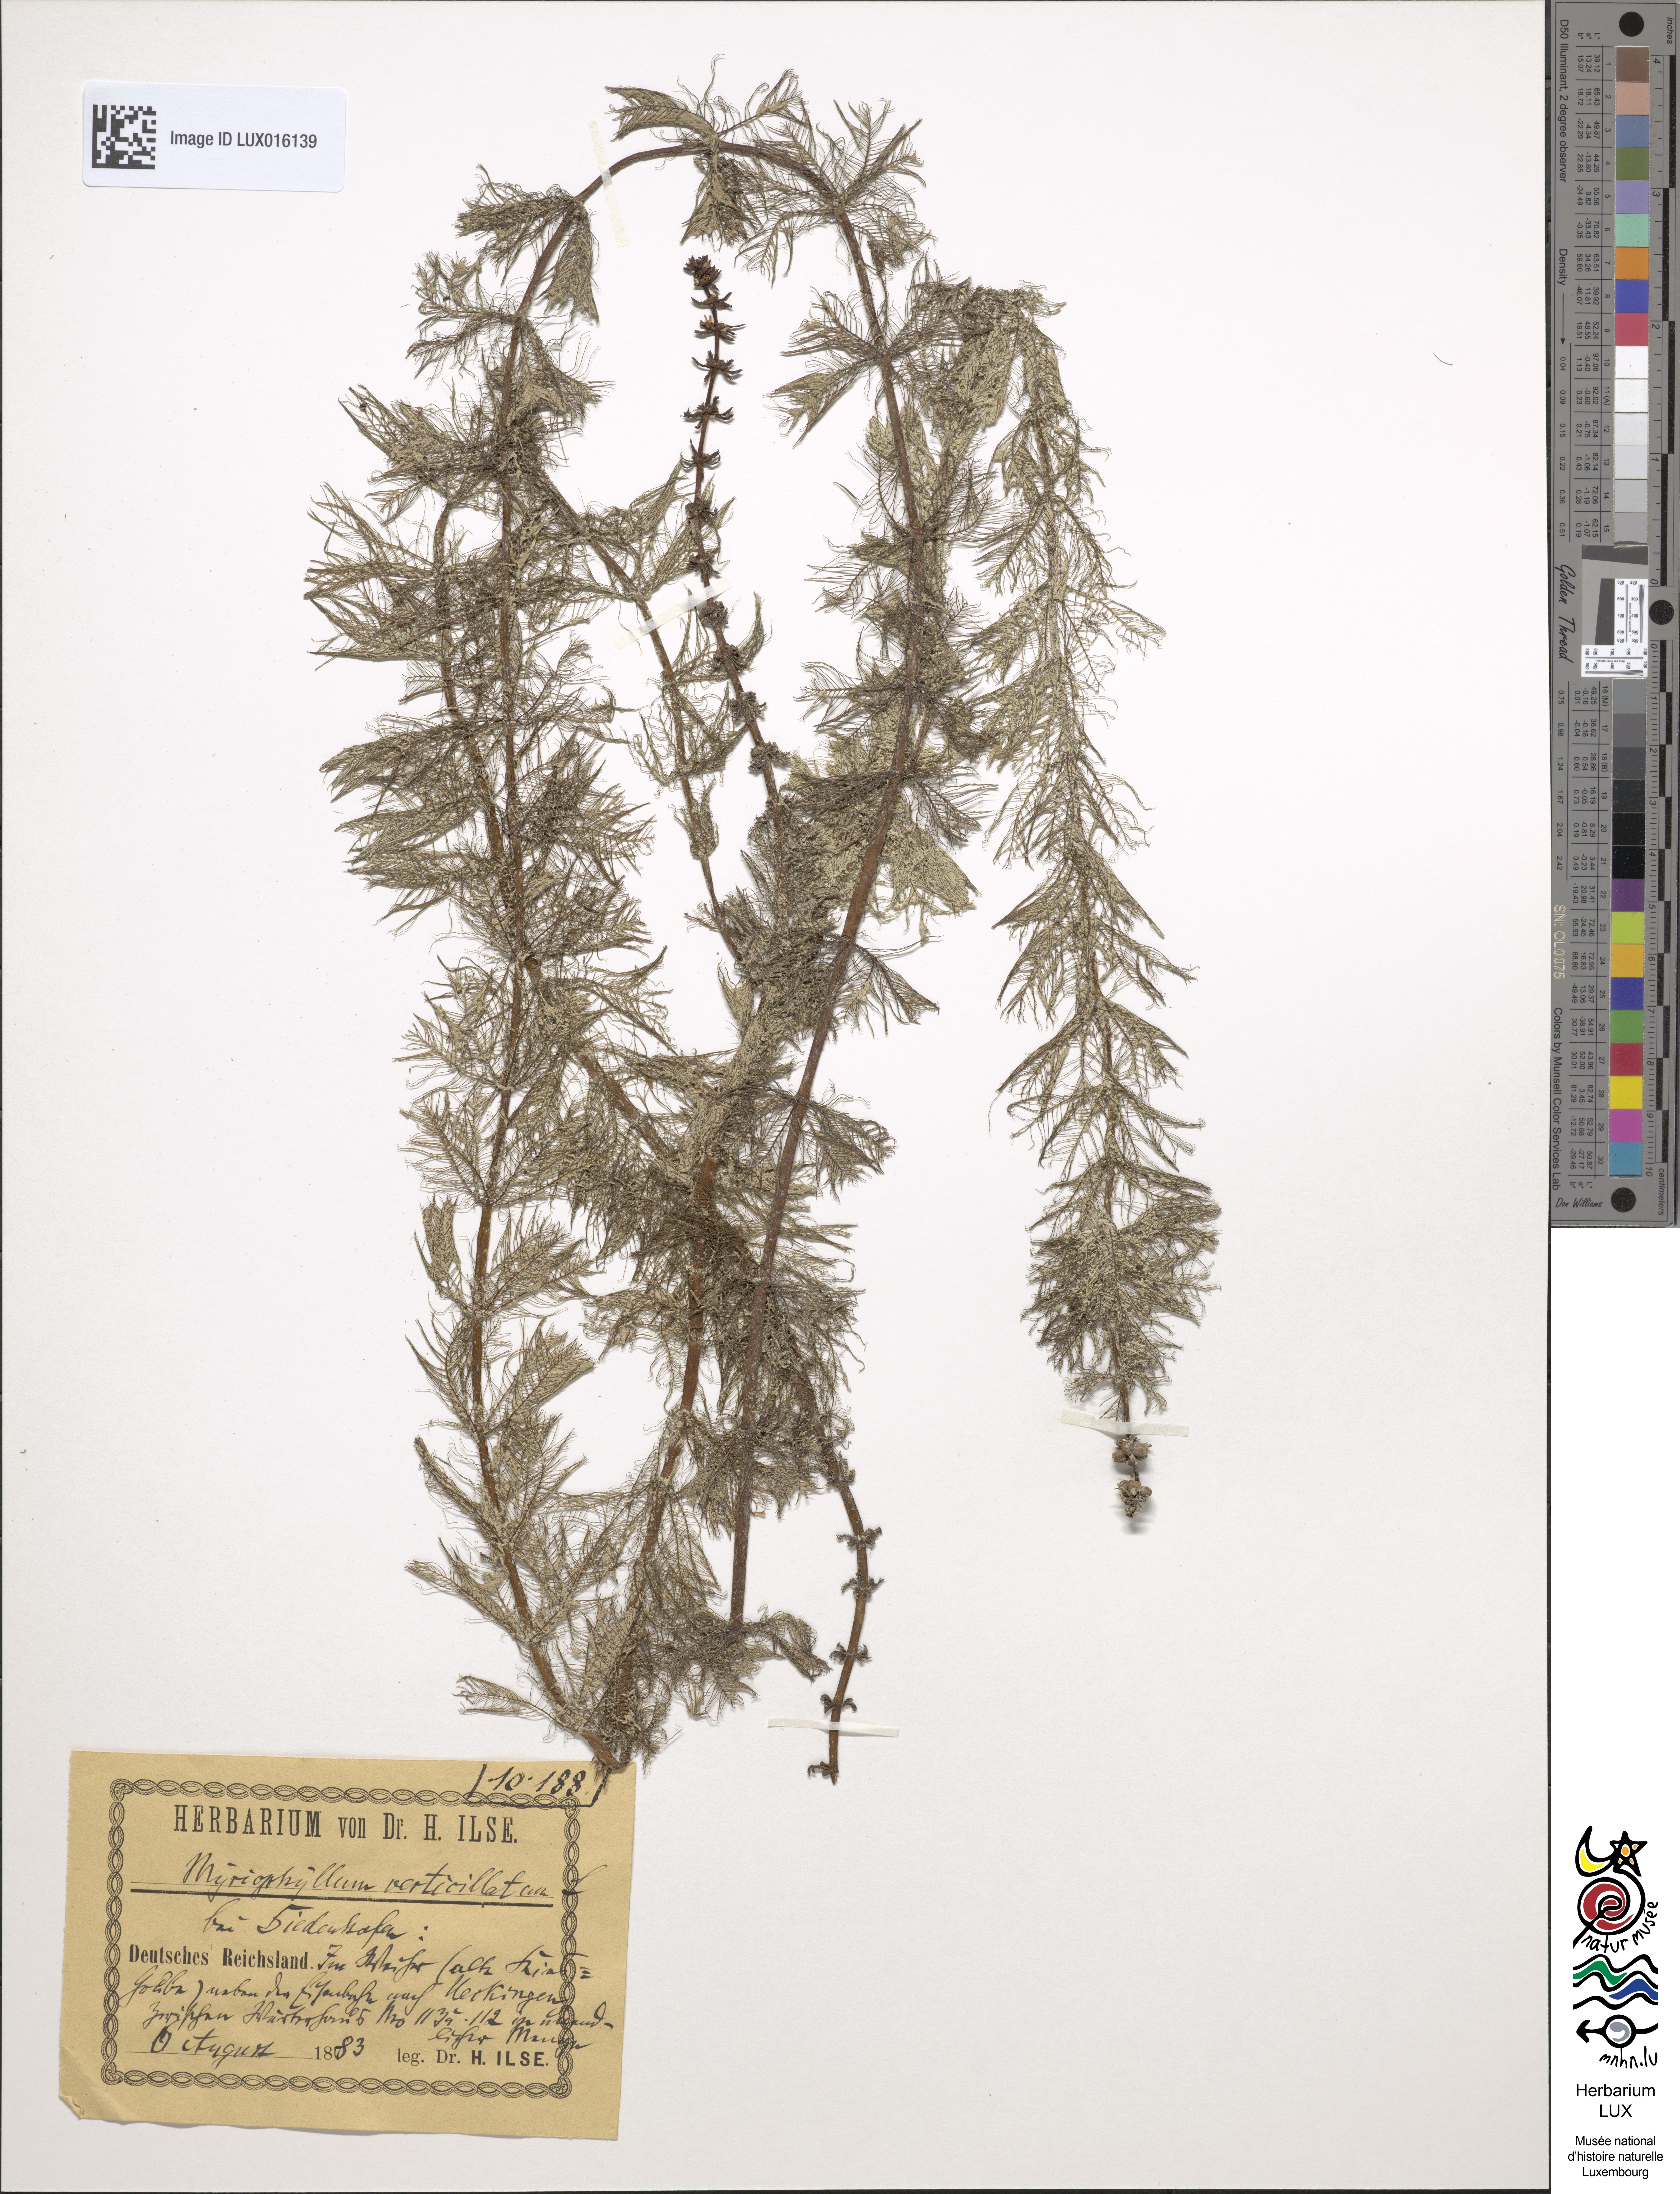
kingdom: Plantae
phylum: Tracheophyta
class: Magnoliopsida
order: Saxifragales
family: Haloragaceae
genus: Myriophyllum
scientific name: Myriophyllum verticillatum
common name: Whorled water-milfoil
